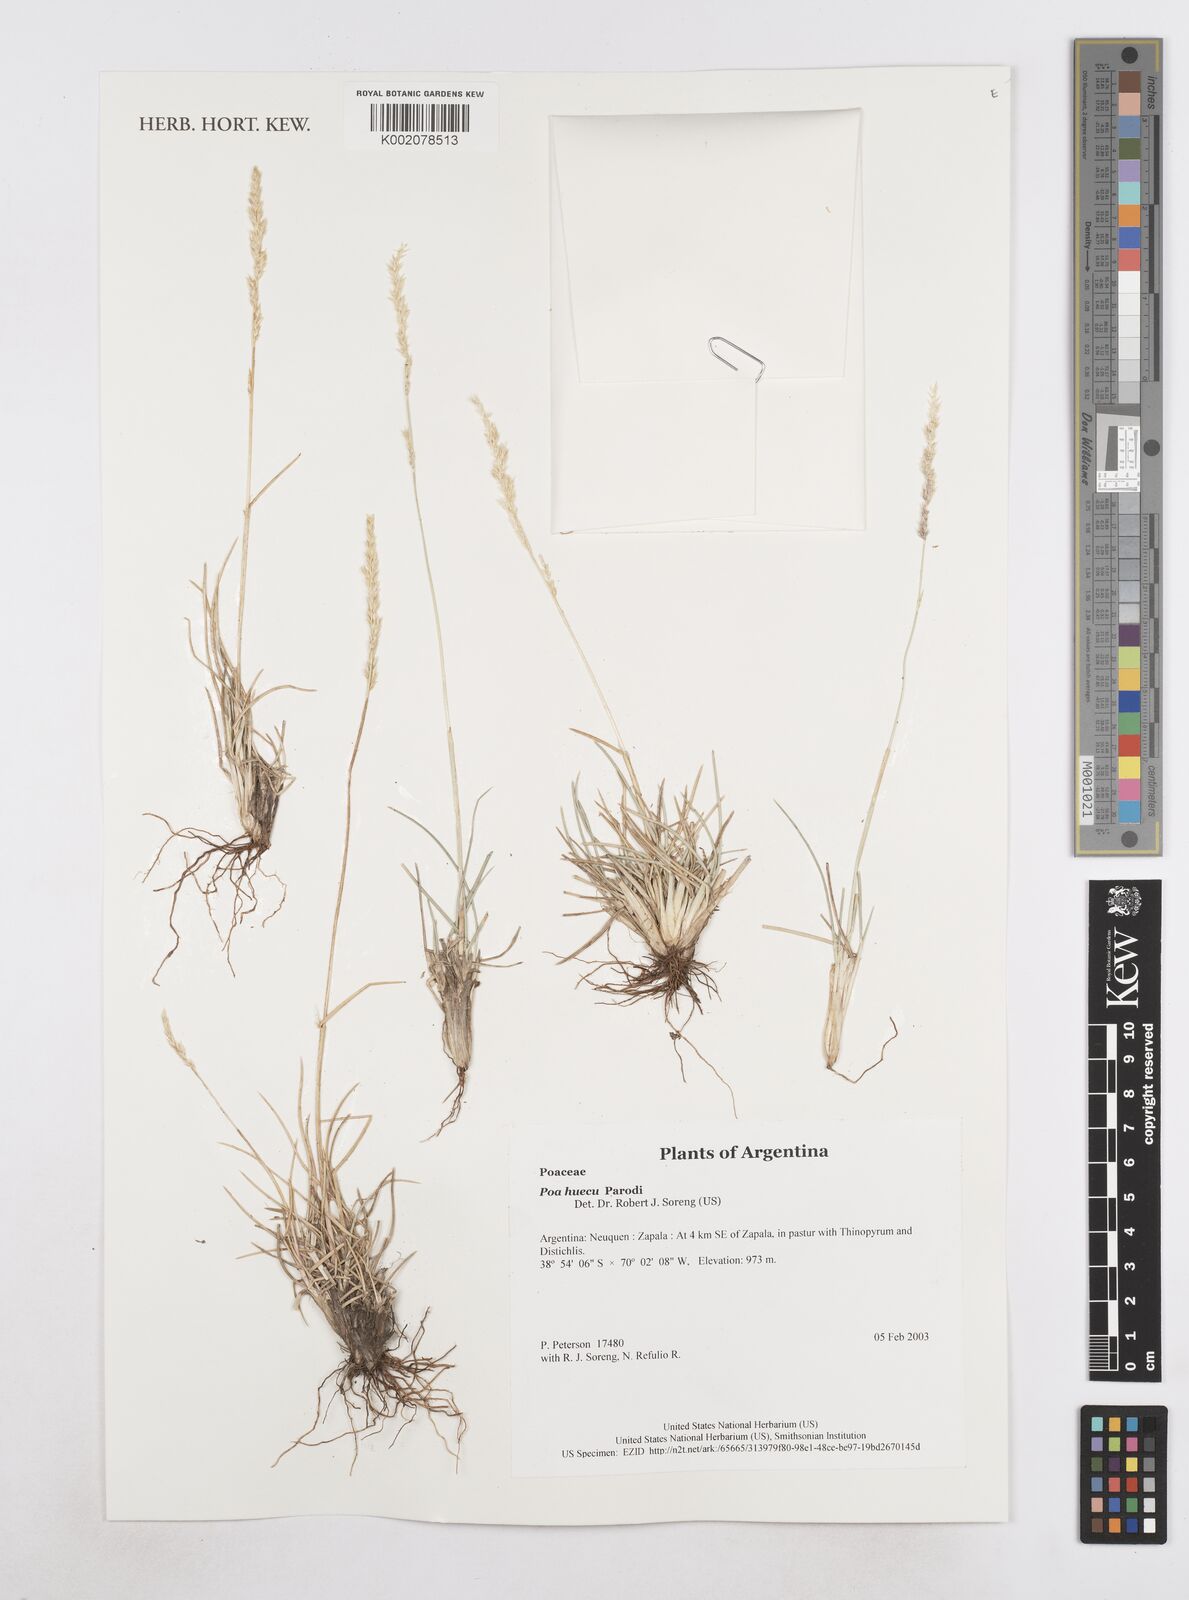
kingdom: Plantae
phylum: Tracheophyta
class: Liliopsida
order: Poales
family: Poaceae
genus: Poa
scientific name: Poa huecu
